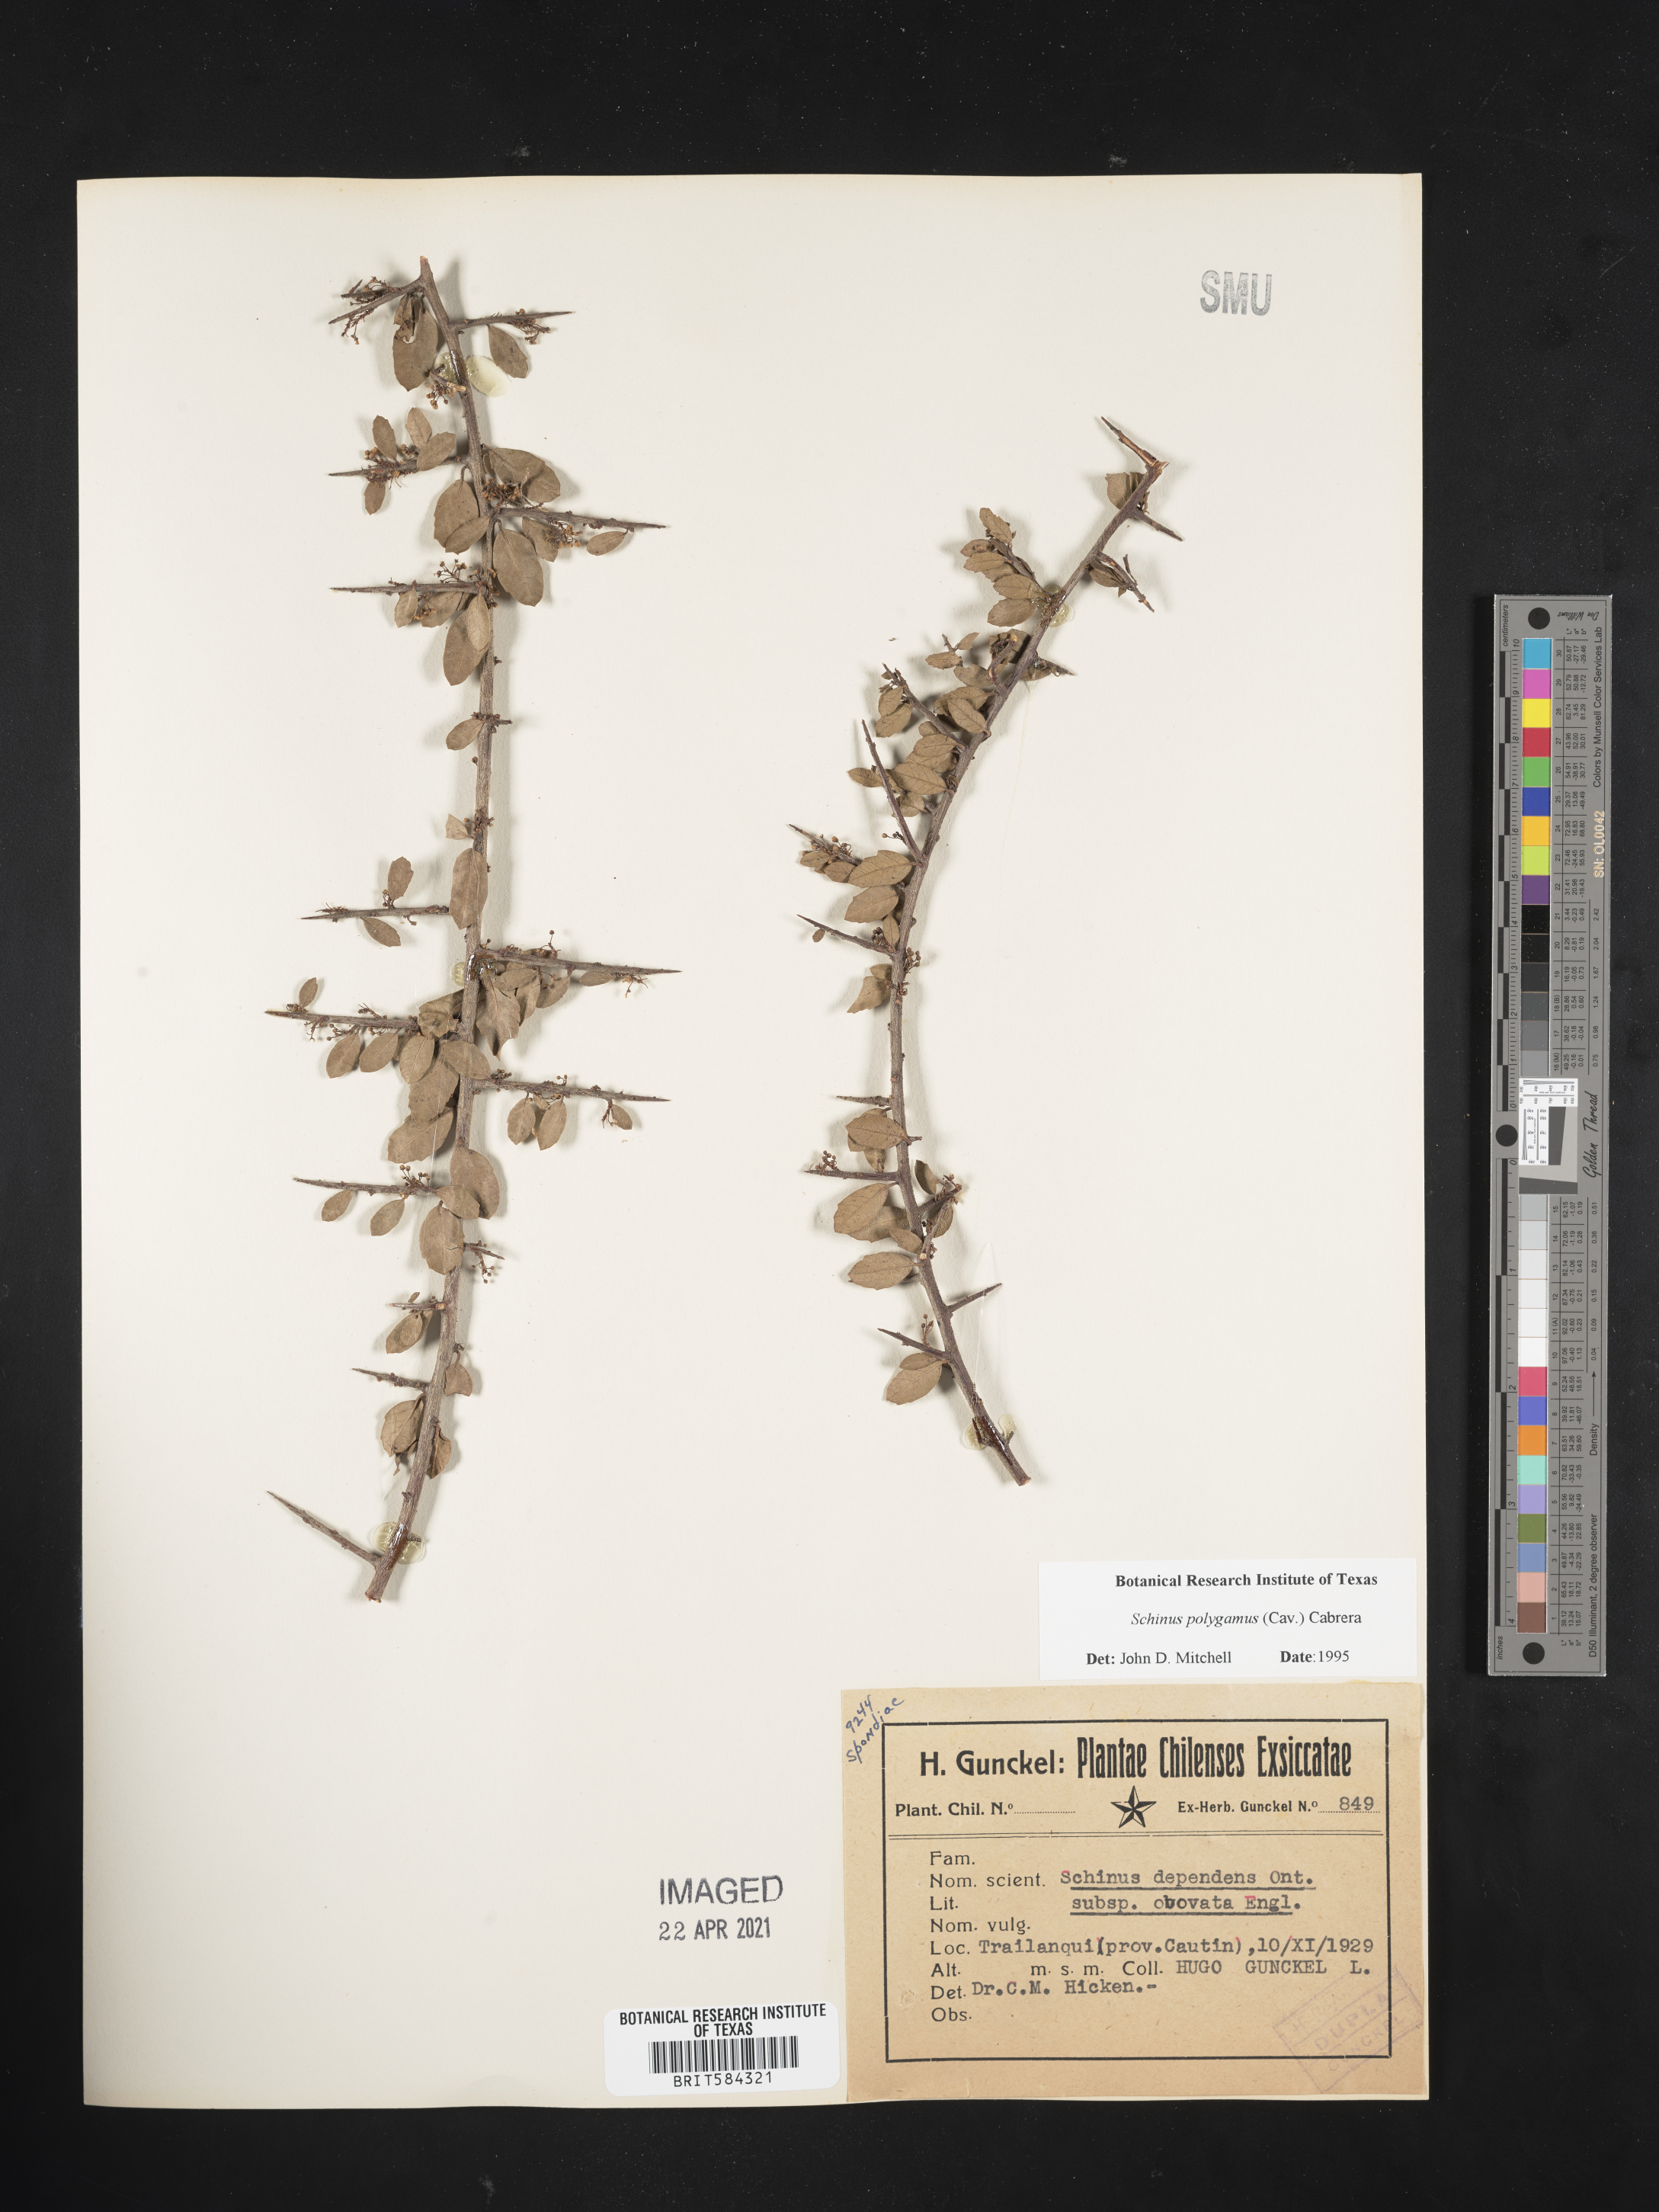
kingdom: Plantae
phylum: Tracheophyta
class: Magnoliopsida
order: Sapindales
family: Anacardiaceae
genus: Schinus
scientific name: Schinus polygama
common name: Hardee peppertree
